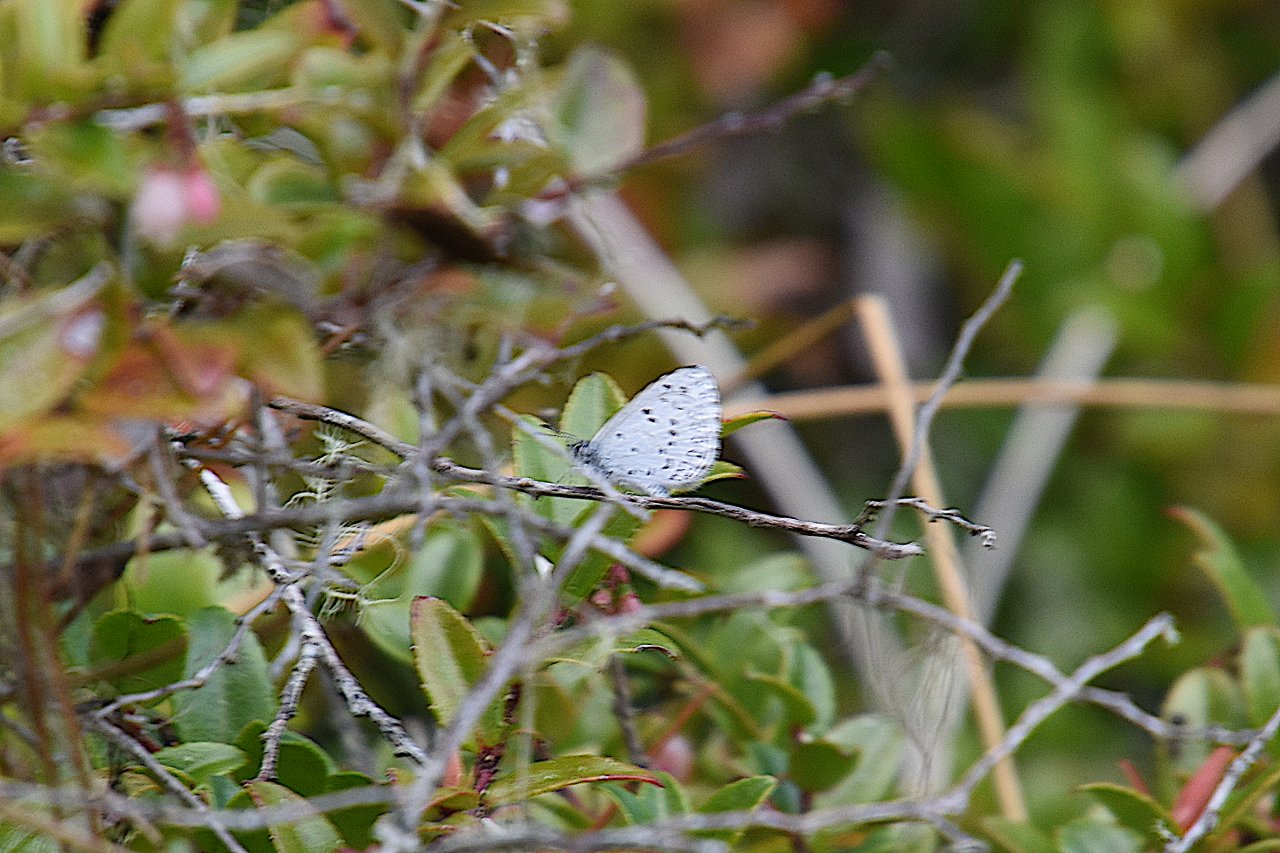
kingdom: Animalia
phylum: Arthropoda
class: Insecta
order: Lepidoptera
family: Lycaenidae
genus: Celastrina
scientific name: Celastrina ladon
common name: Echo Azure
